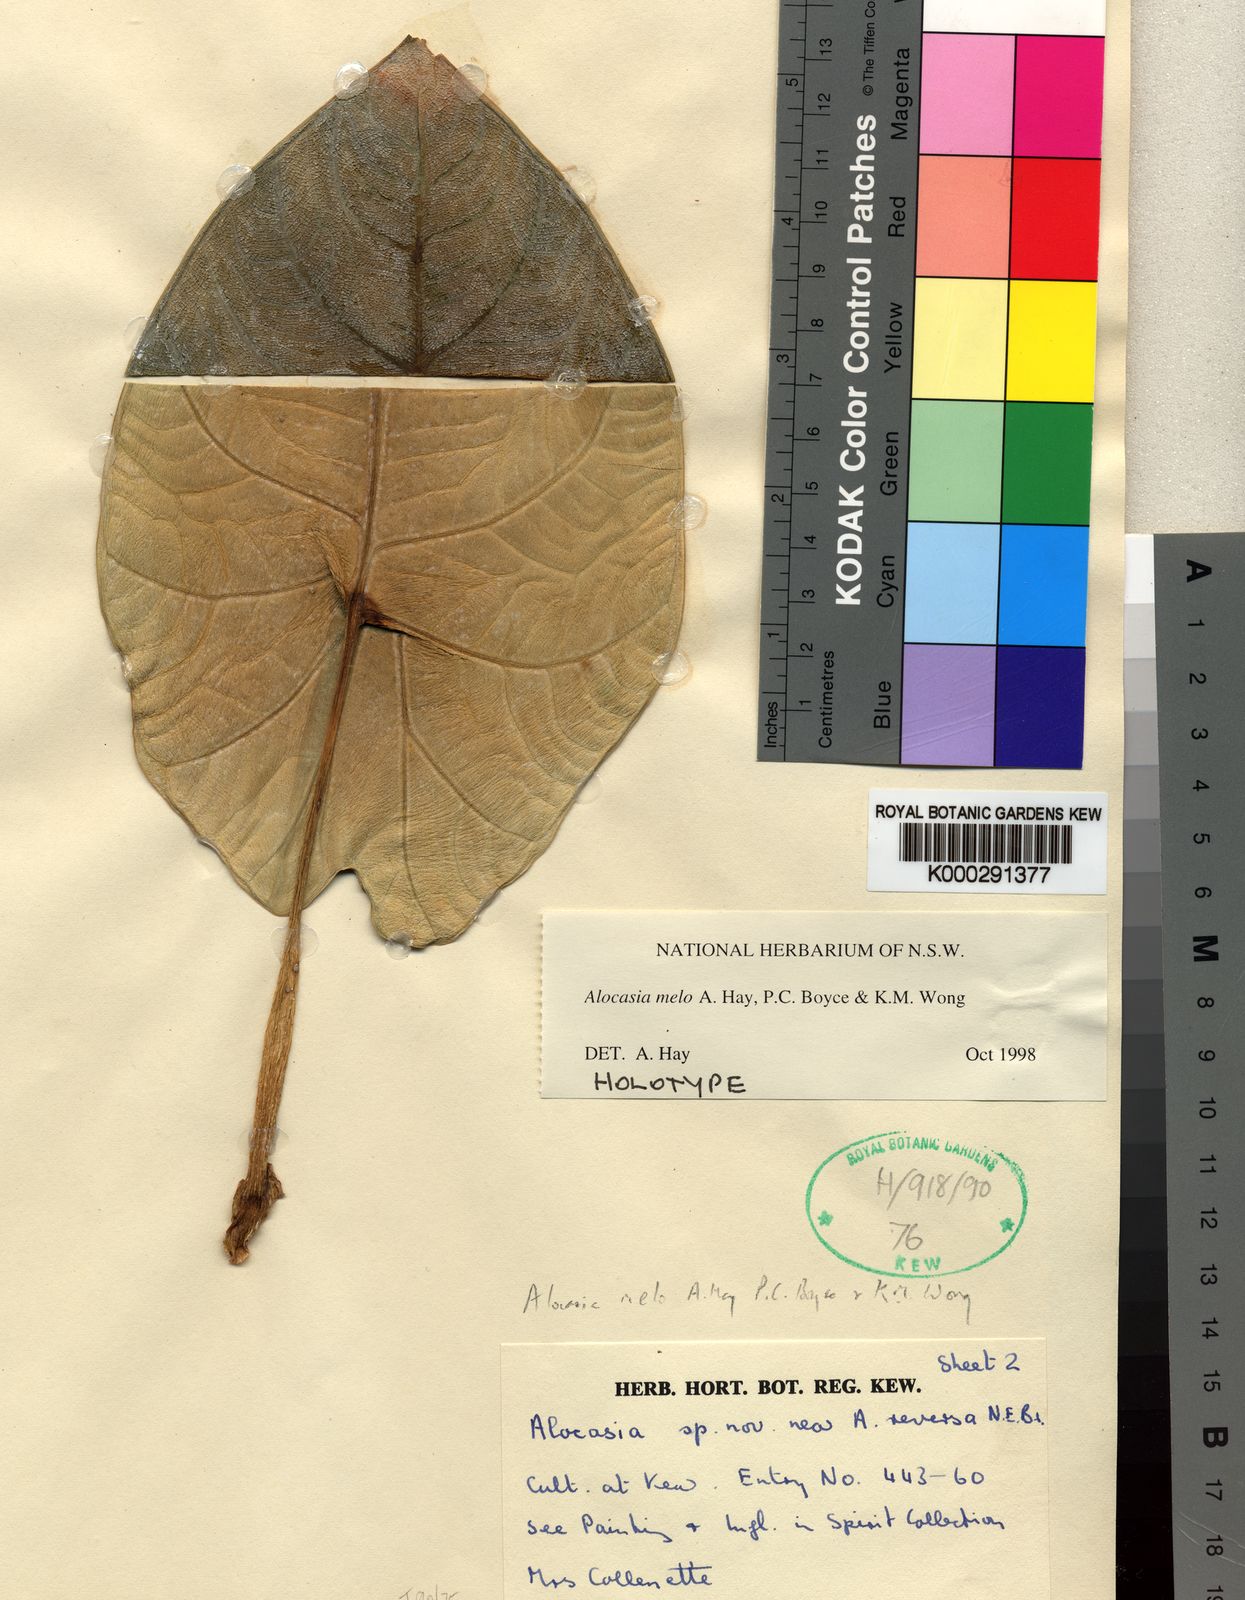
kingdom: Plantae
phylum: Tracheophyta
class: Liliopsida
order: Alismatales
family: Araceae
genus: Alocasia
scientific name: Alocasia melo
